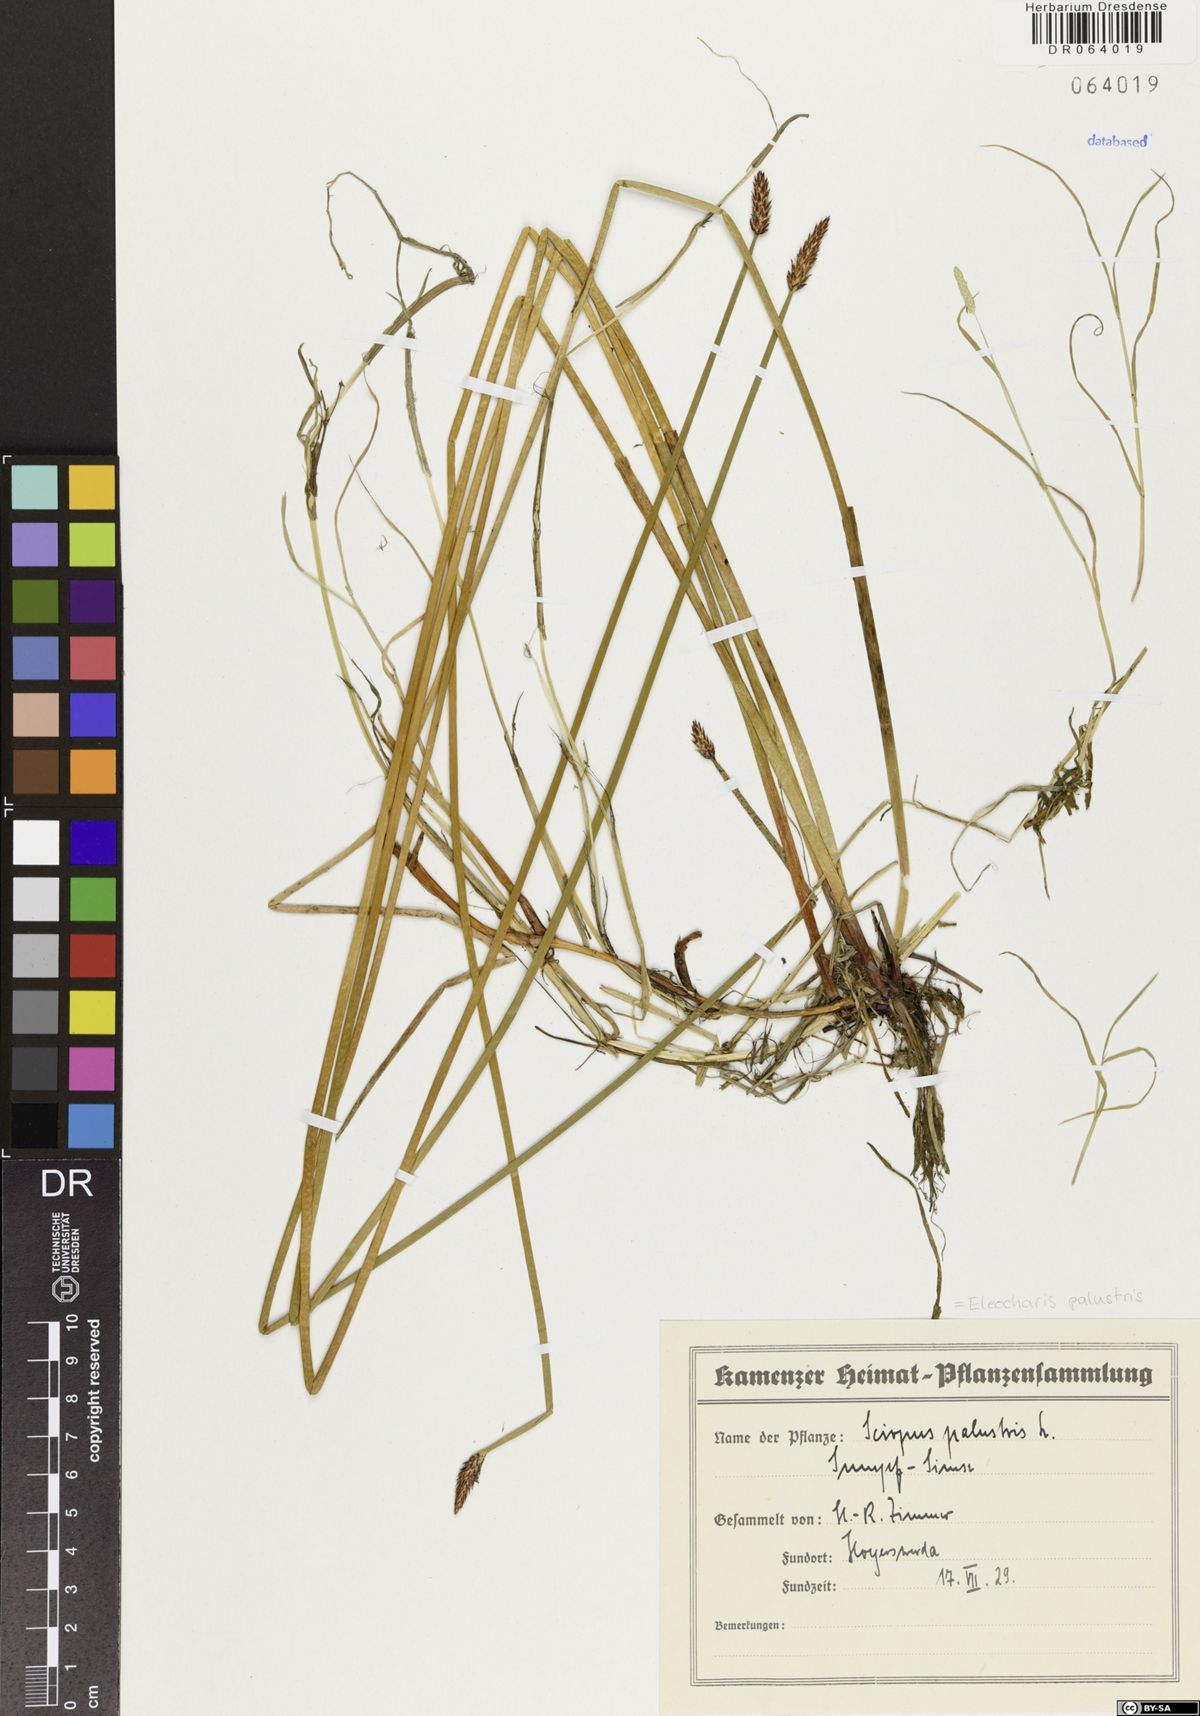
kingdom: Plantae
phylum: Tracheophyta
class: Liliopsida
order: Poales
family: Cyperaceae
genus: Eleocharis
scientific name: Eleocharis palustris
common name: Common spike-rush
